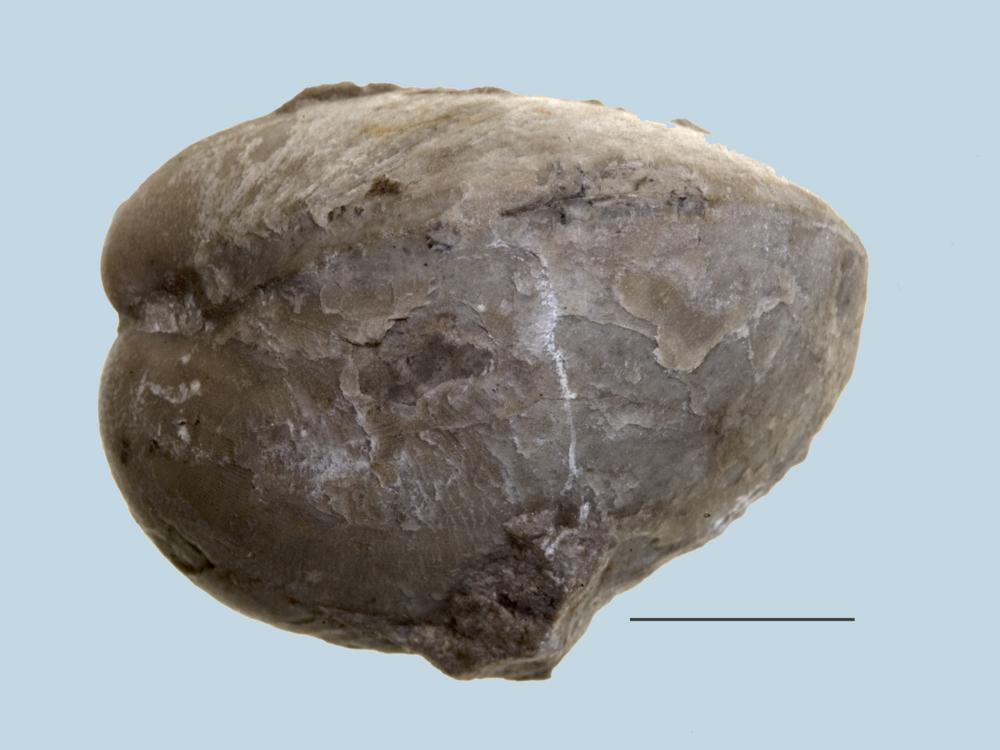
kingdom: Animalia
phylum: Brachiopoda
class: Rhynchonellata
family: Lycophoriidae
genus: Lycophoria
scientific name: Lycophoria Atrypa nucella
